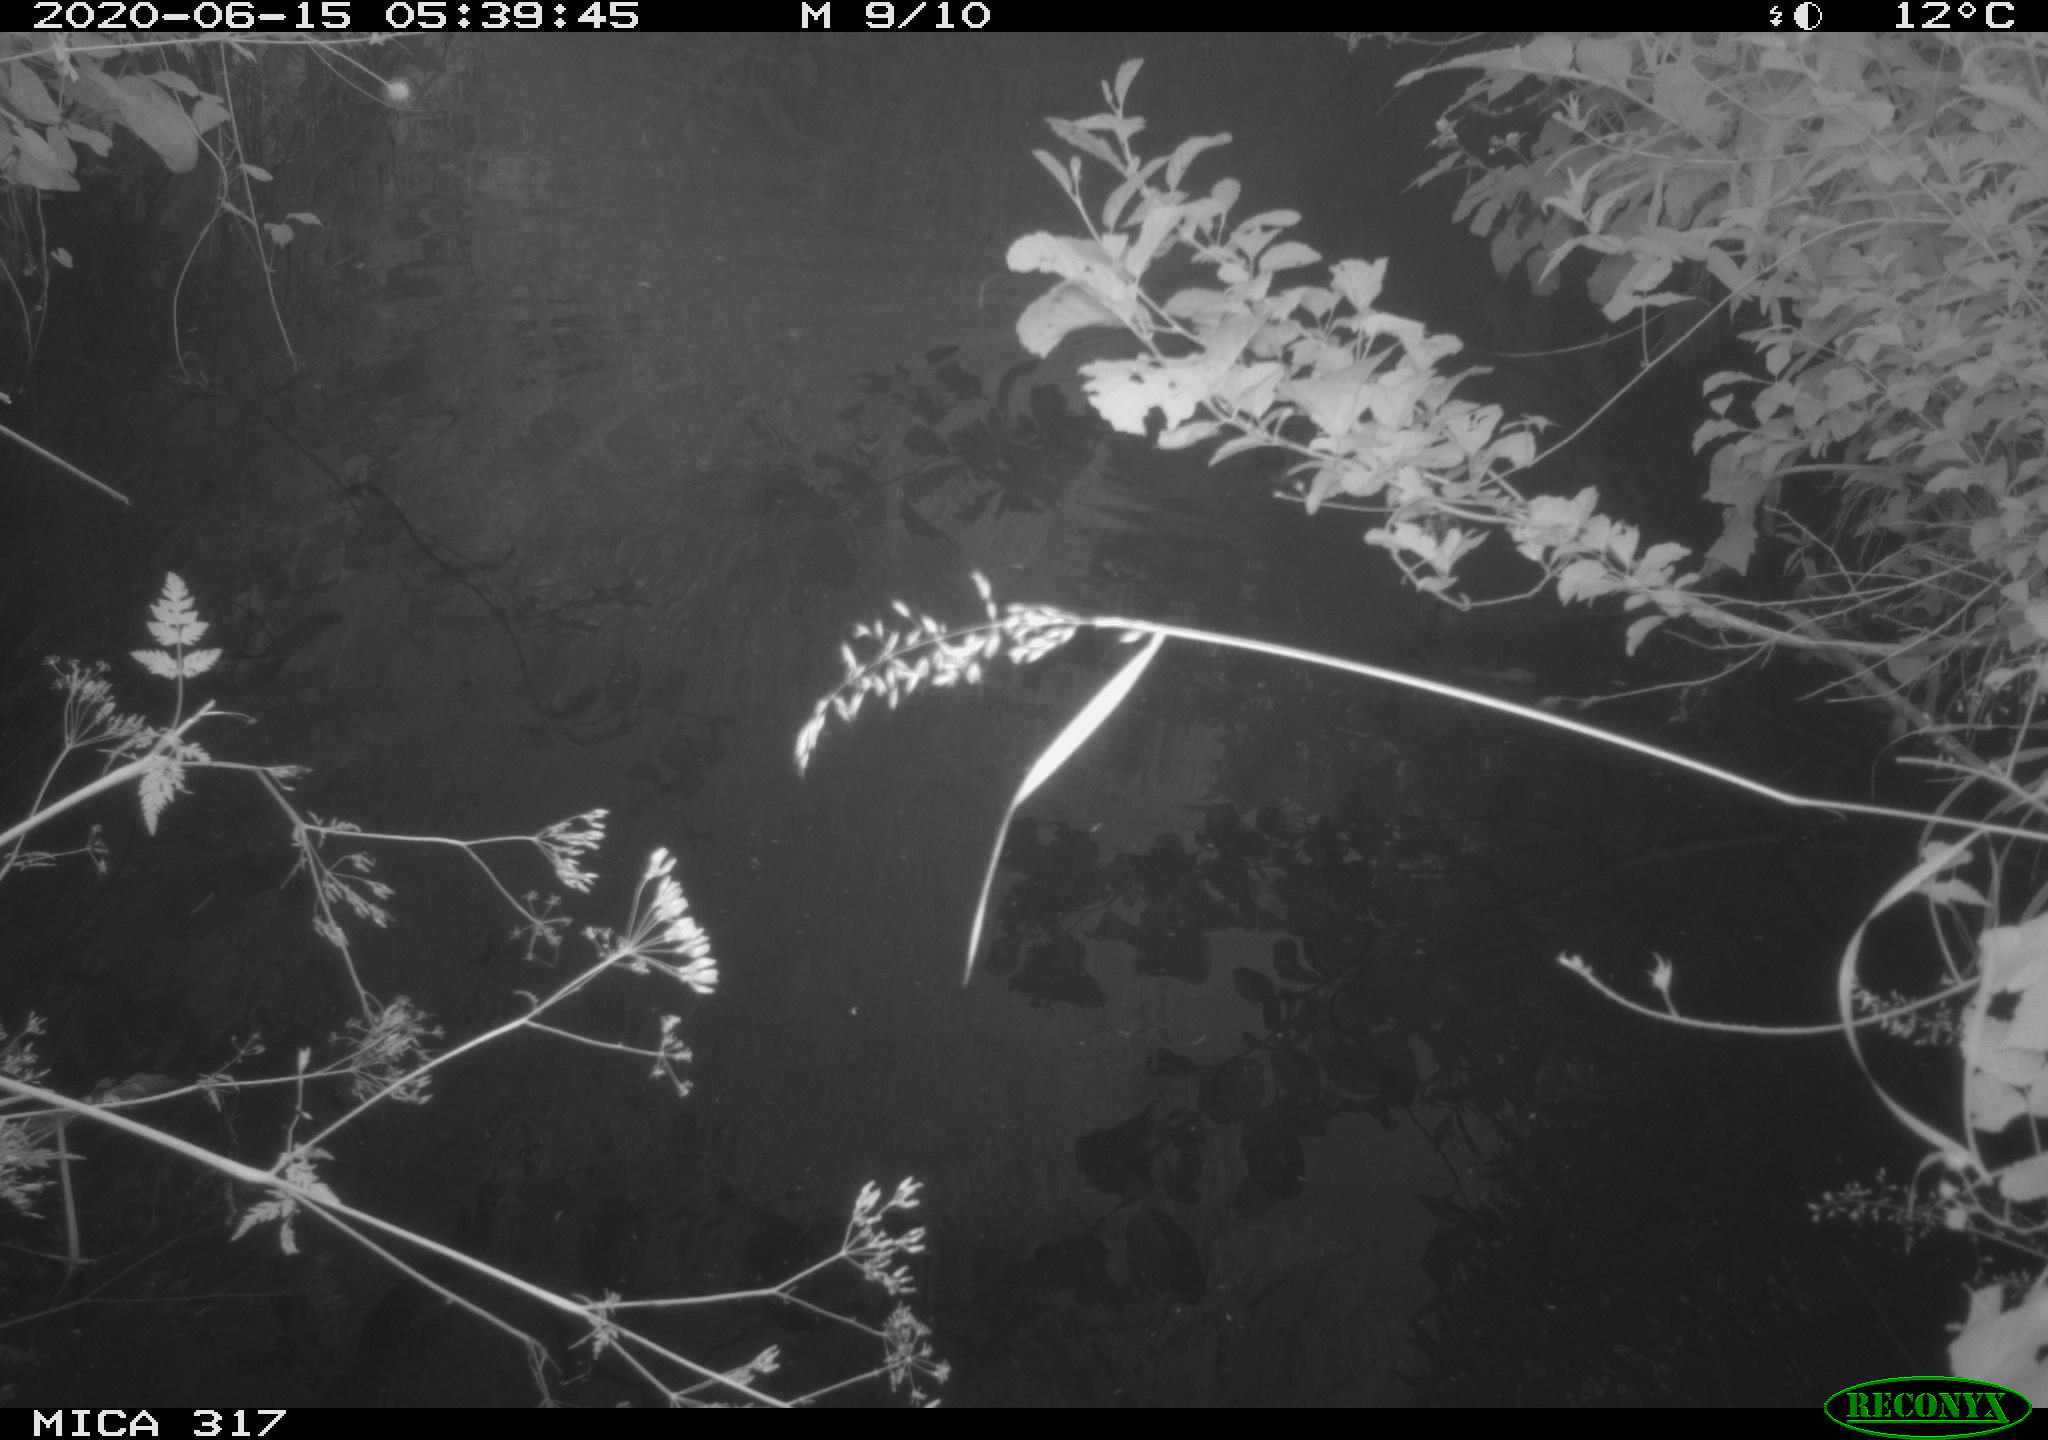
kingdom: Animalia
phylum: Chordata
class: Aves
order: Gruiformes
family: Rallidae
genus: Gallinula
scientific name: Gallinula chloropus
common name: Common moorhen
